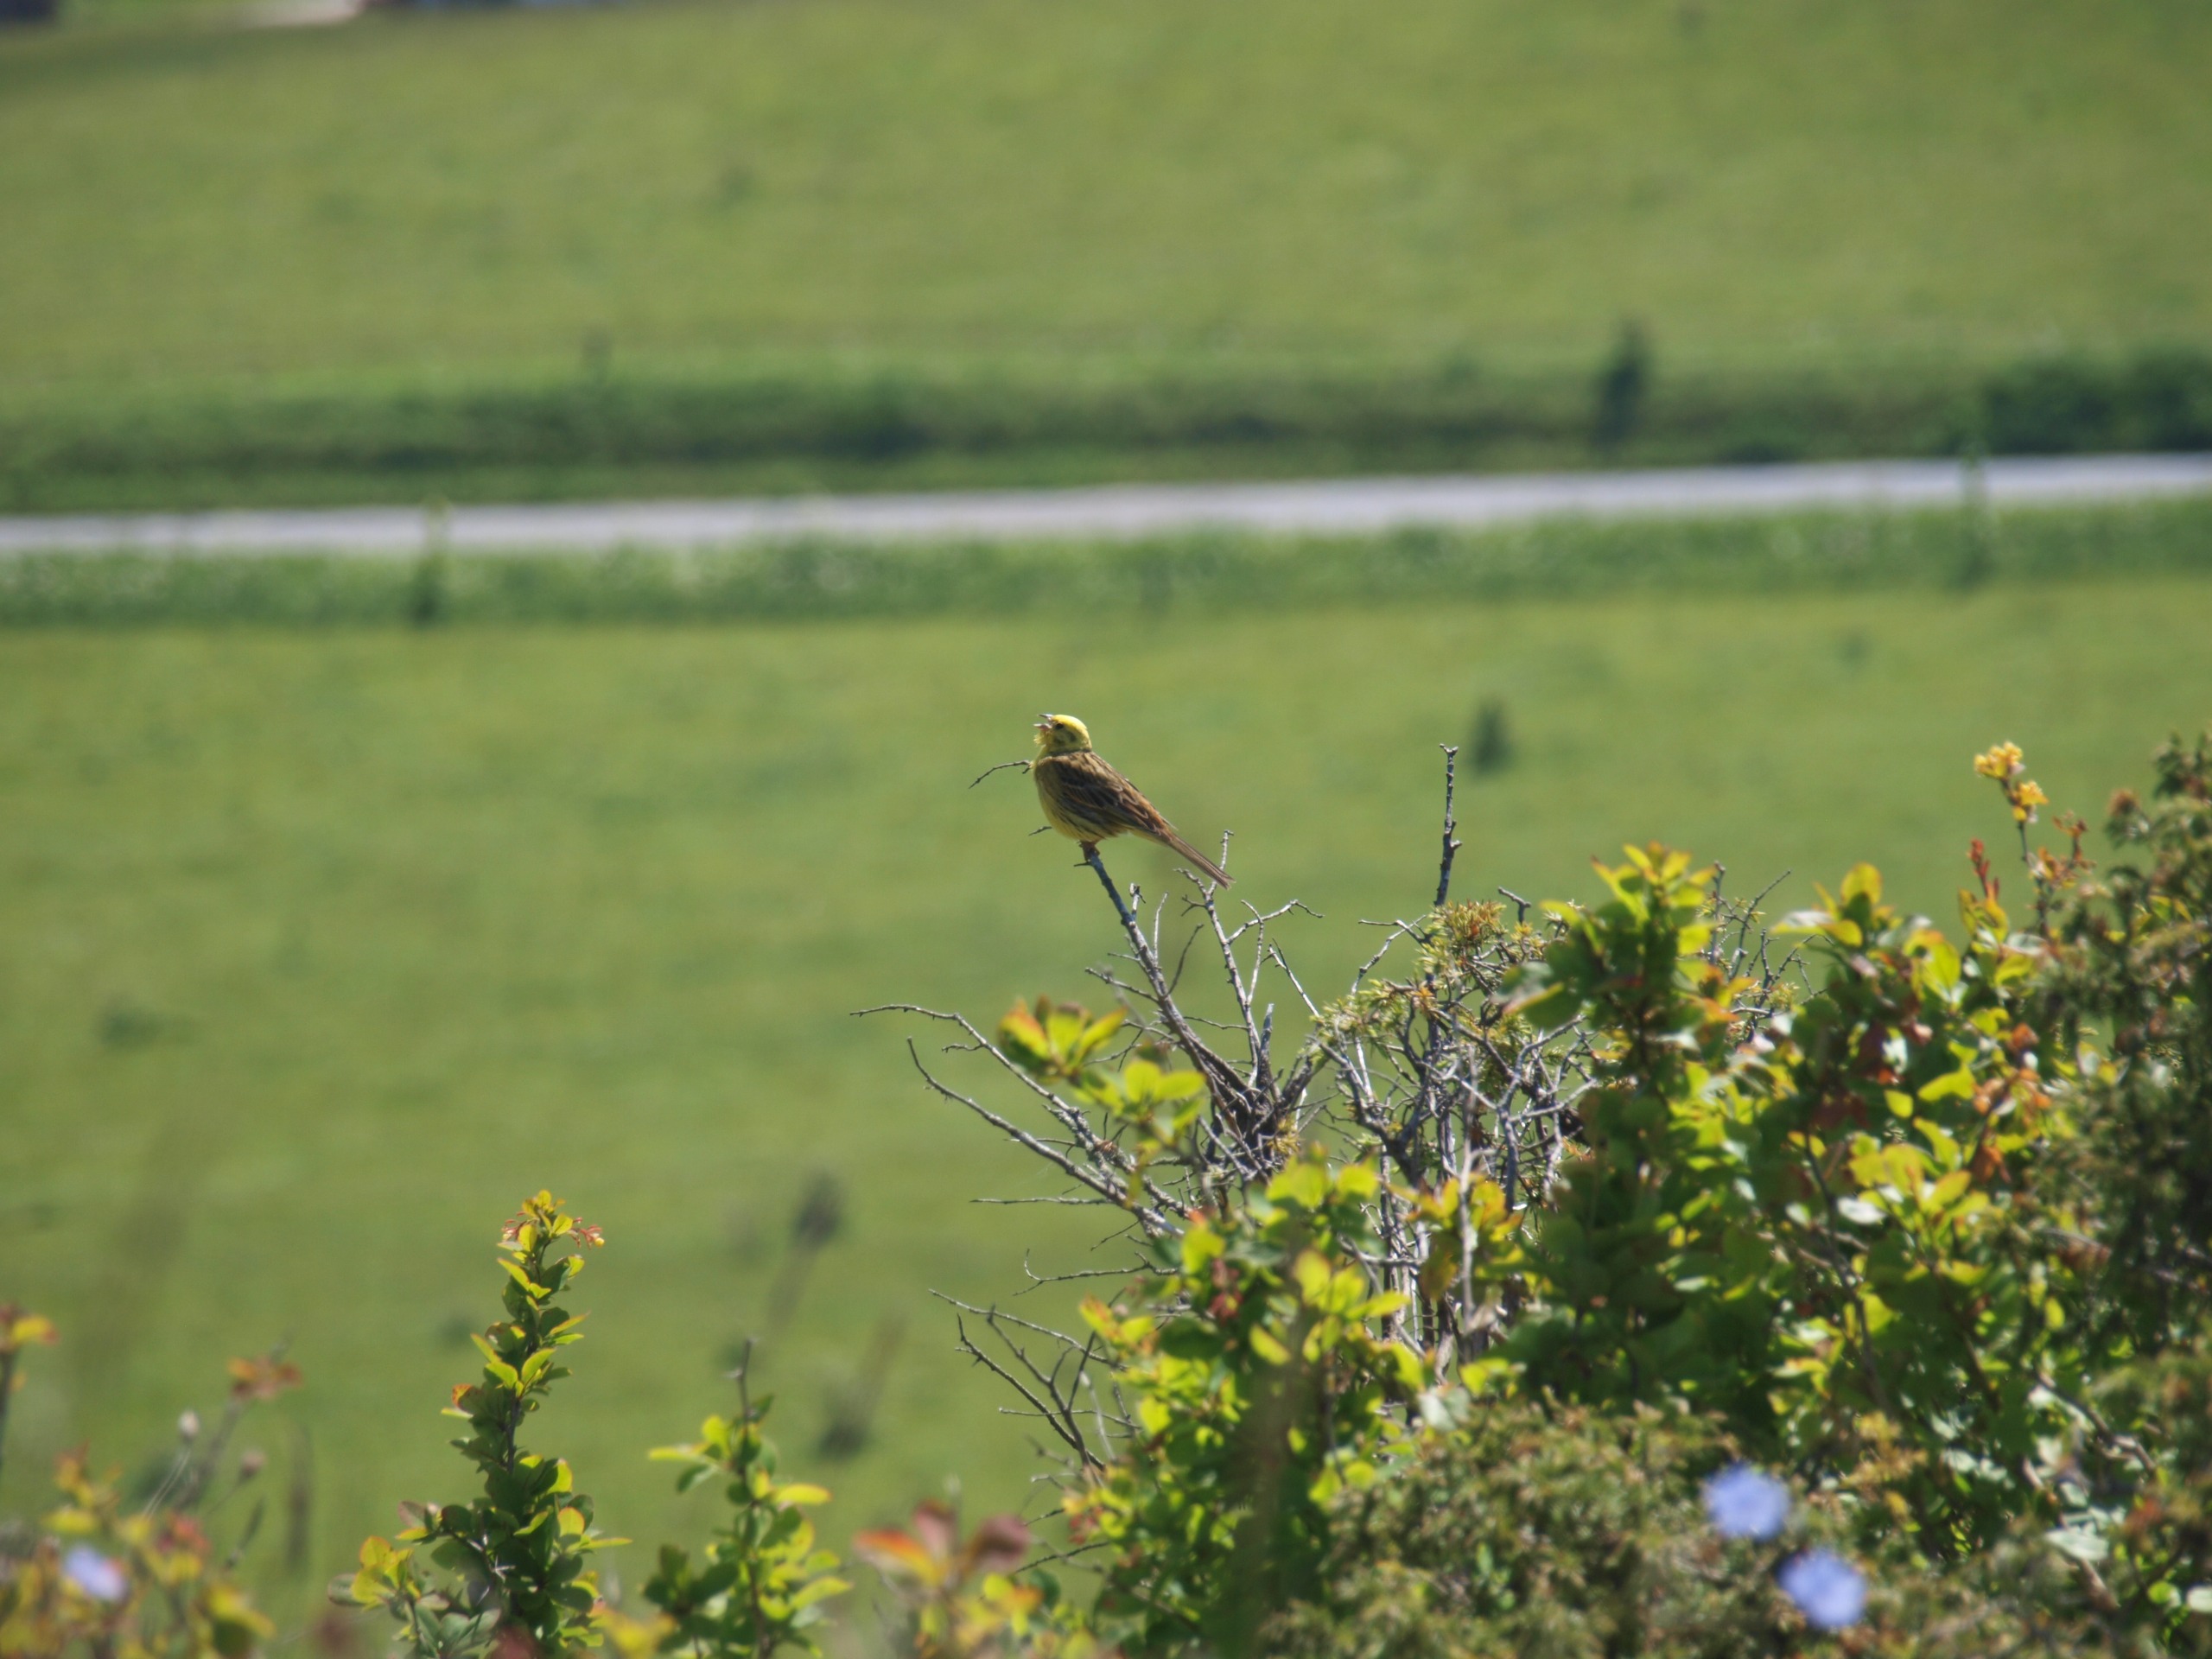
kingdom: Animalia
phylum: Chordata
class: Aves
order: Passeriformes
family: Emberizidae
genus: Emberiza
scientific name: Emberiza citrinella
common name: Gulspurv
